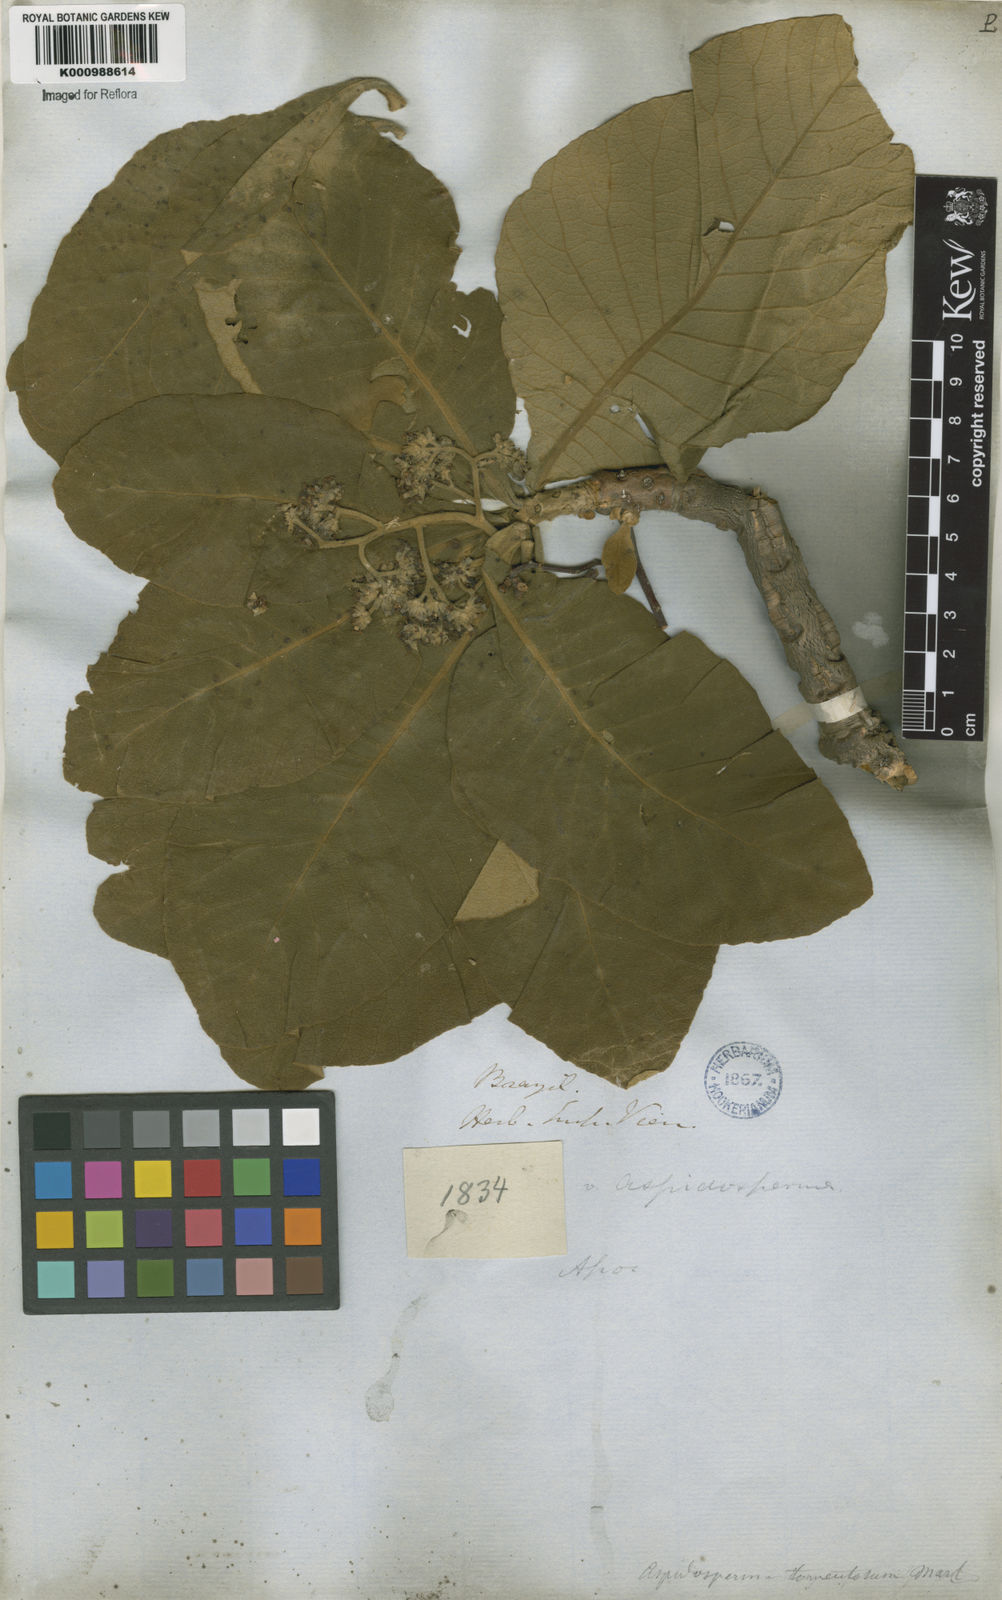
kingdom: Plantae
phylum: Tracheophyta
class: Magnoliopsida
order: Gentianales
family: Apocynaceae
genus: Aspidosperma
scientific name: Aspidosperma tomentosum
